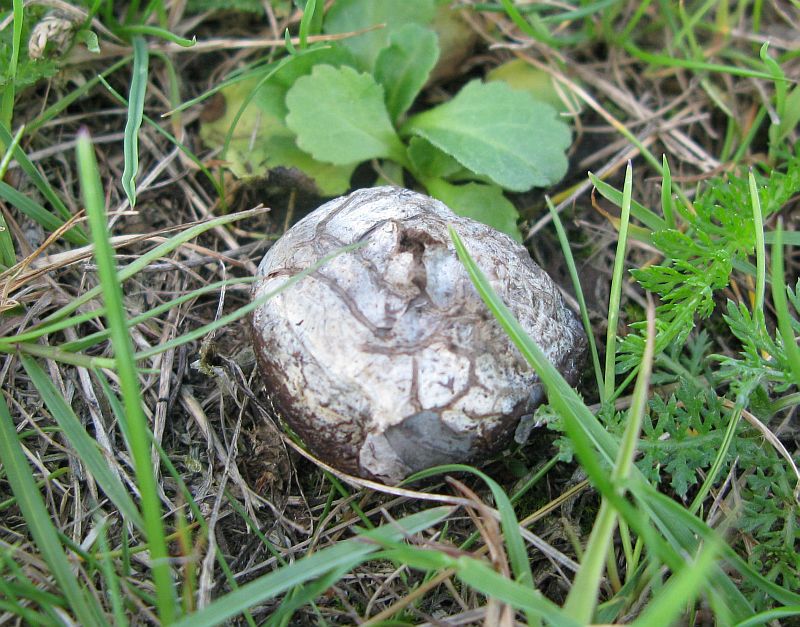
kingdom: Fungi
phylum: Basidiomycota
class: Agaricomycetes
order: Agaricales
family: Lycoperdaceae
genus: Bovista
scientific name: Bovista plumbea
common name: blygrå bovist
